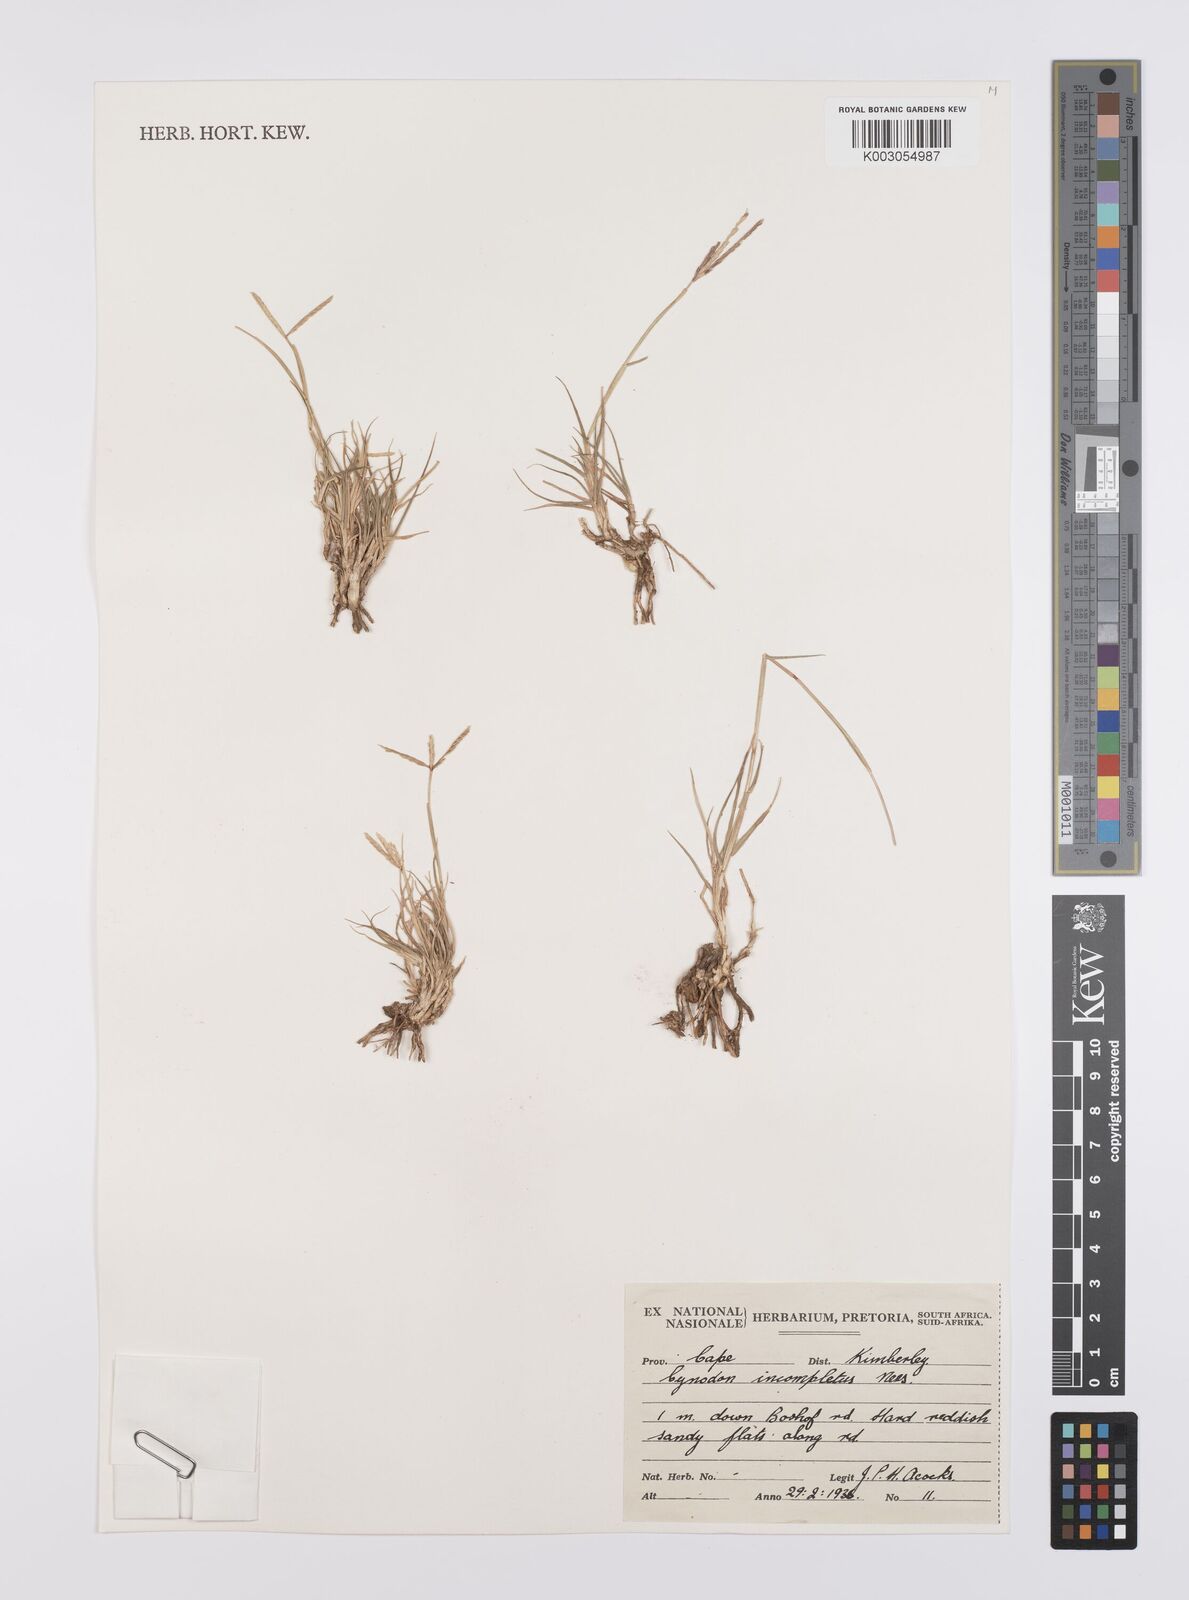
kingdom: Plantae
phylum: Tracheophyta
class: Liliopsida
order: Poales
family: Poaceae
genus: Cynodon
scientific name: Cynodon incompletus
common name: African bermuda-grass
